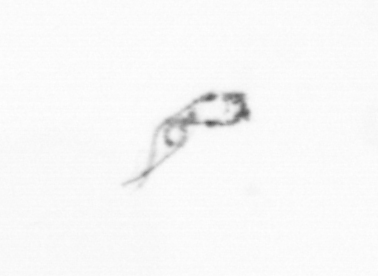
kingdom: Chromista
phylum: Ochrophyta
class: Bacillariophyceae
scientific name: Bacillariophyceae
